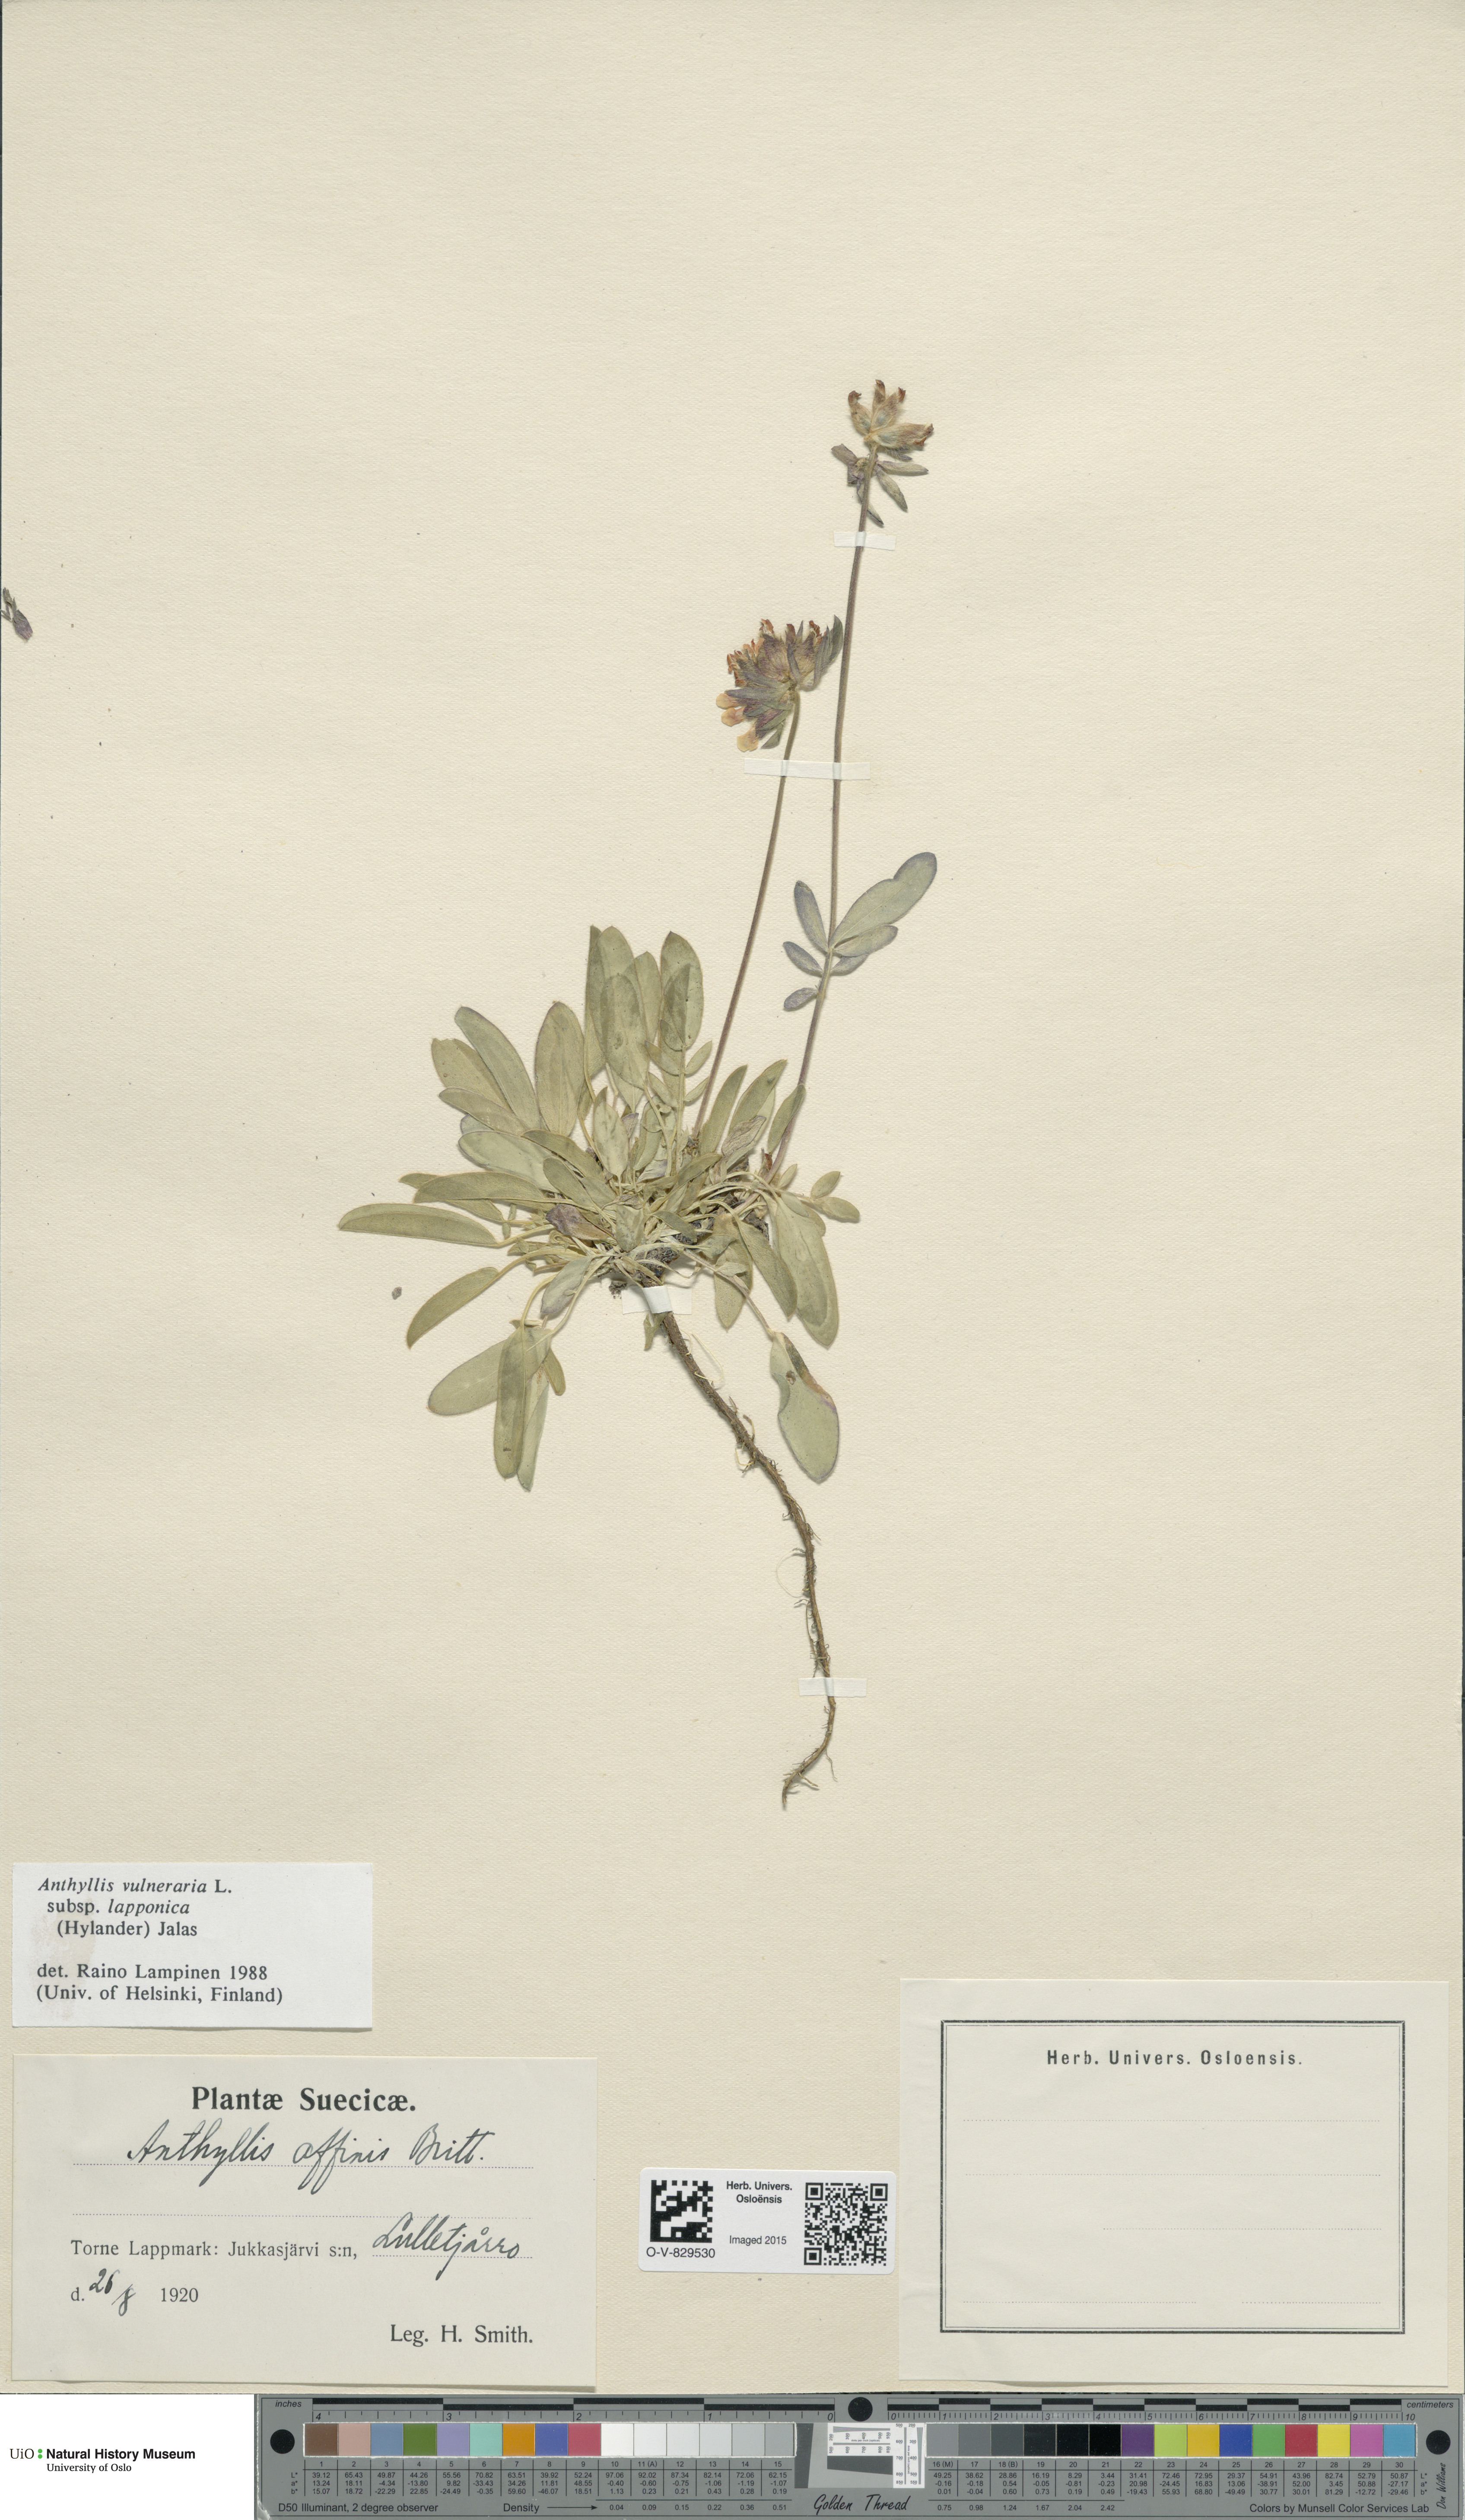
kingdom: Plantae
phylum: Tracheophyta
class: Magnoliopsida
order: Fabales
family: Fabaceae
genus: Anthyllis
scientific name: Anthyllis vulneraria
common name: Kidney vetch
